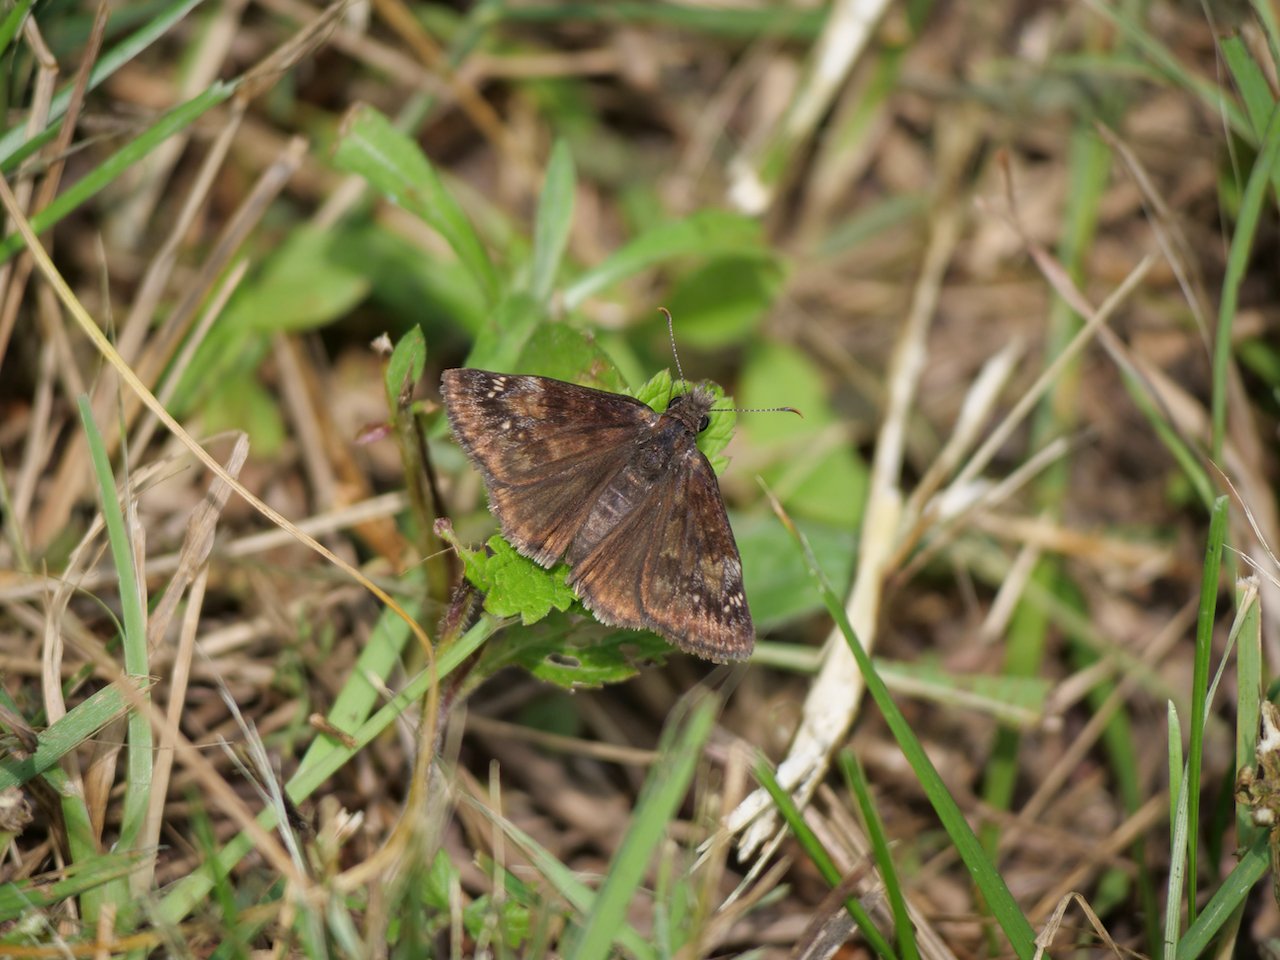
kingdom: Animalia
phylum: Arthropoda
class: Insecta
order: Lepidoptera
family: Hesperiidae
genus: Gesta
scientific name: Gesta
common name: Wild Indigo Duskywing
